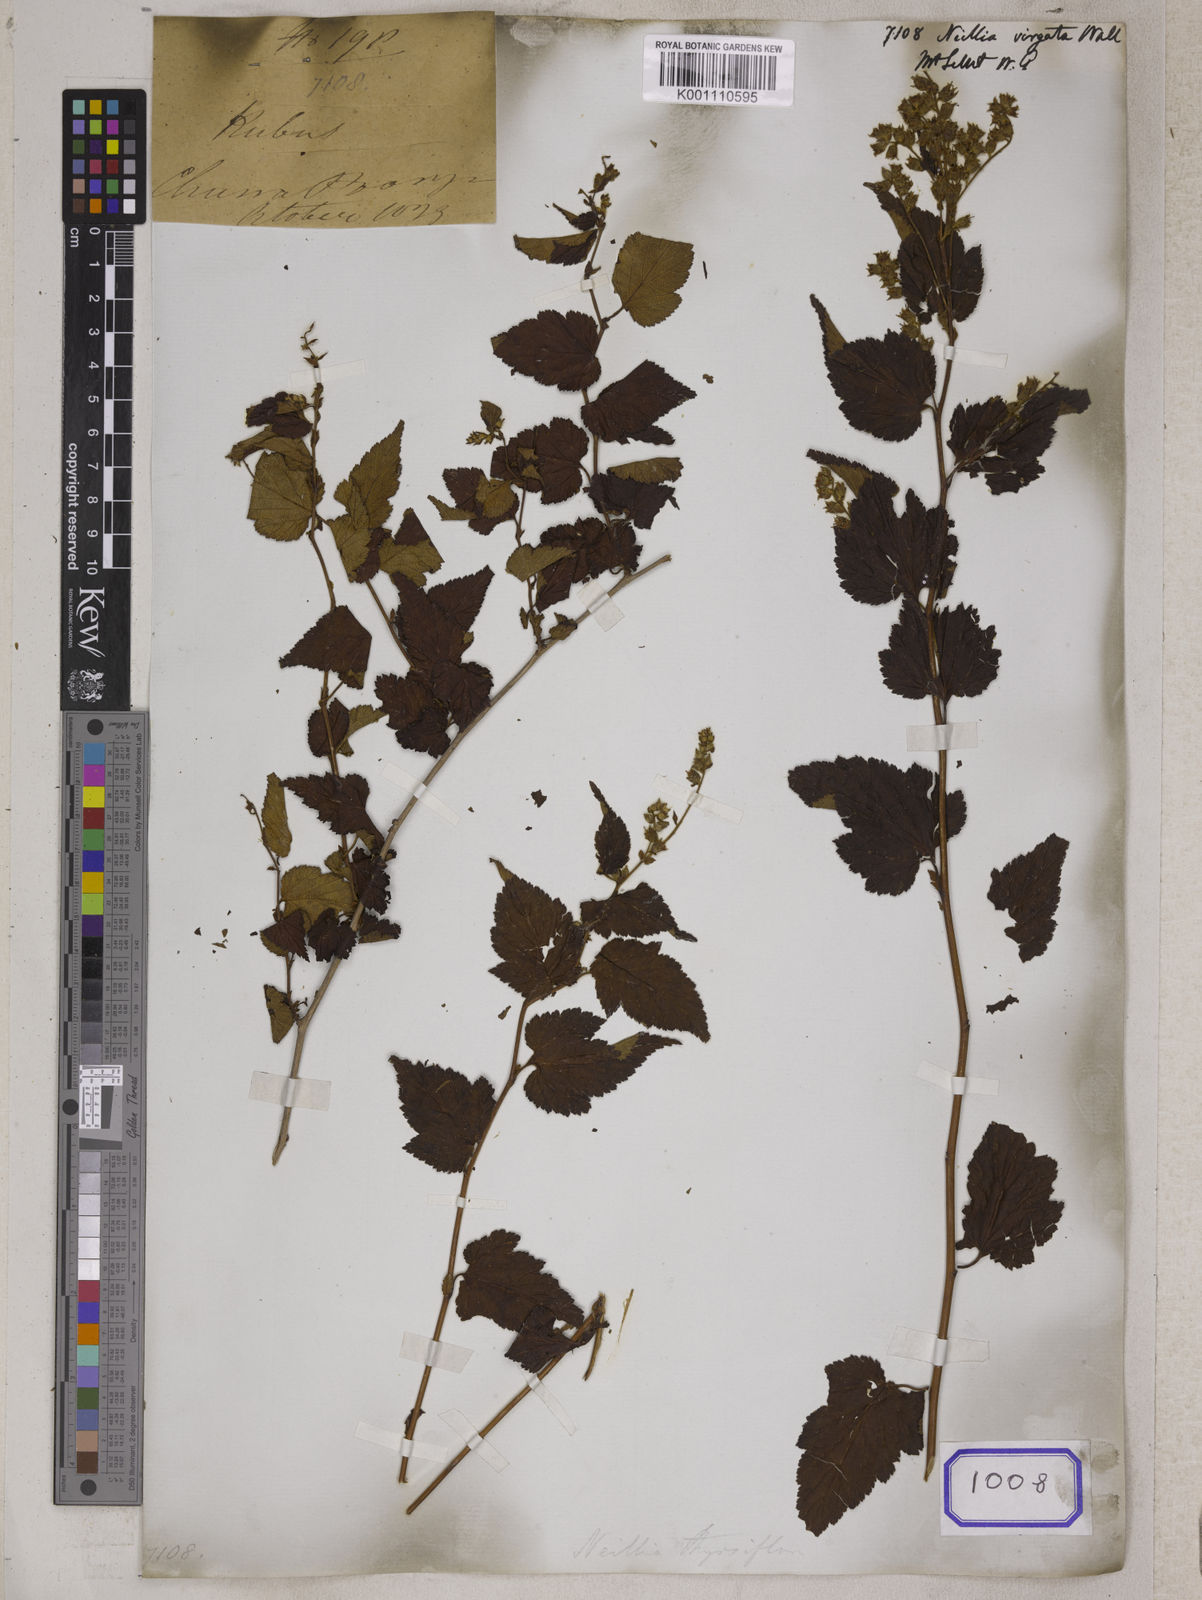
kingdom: Plantae
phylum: Tracheophyta
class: Magnoliopsida
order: Rosales
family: Rosaceae
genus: Prunus
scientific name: Prunus napaulensis
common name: Khasia cherry
